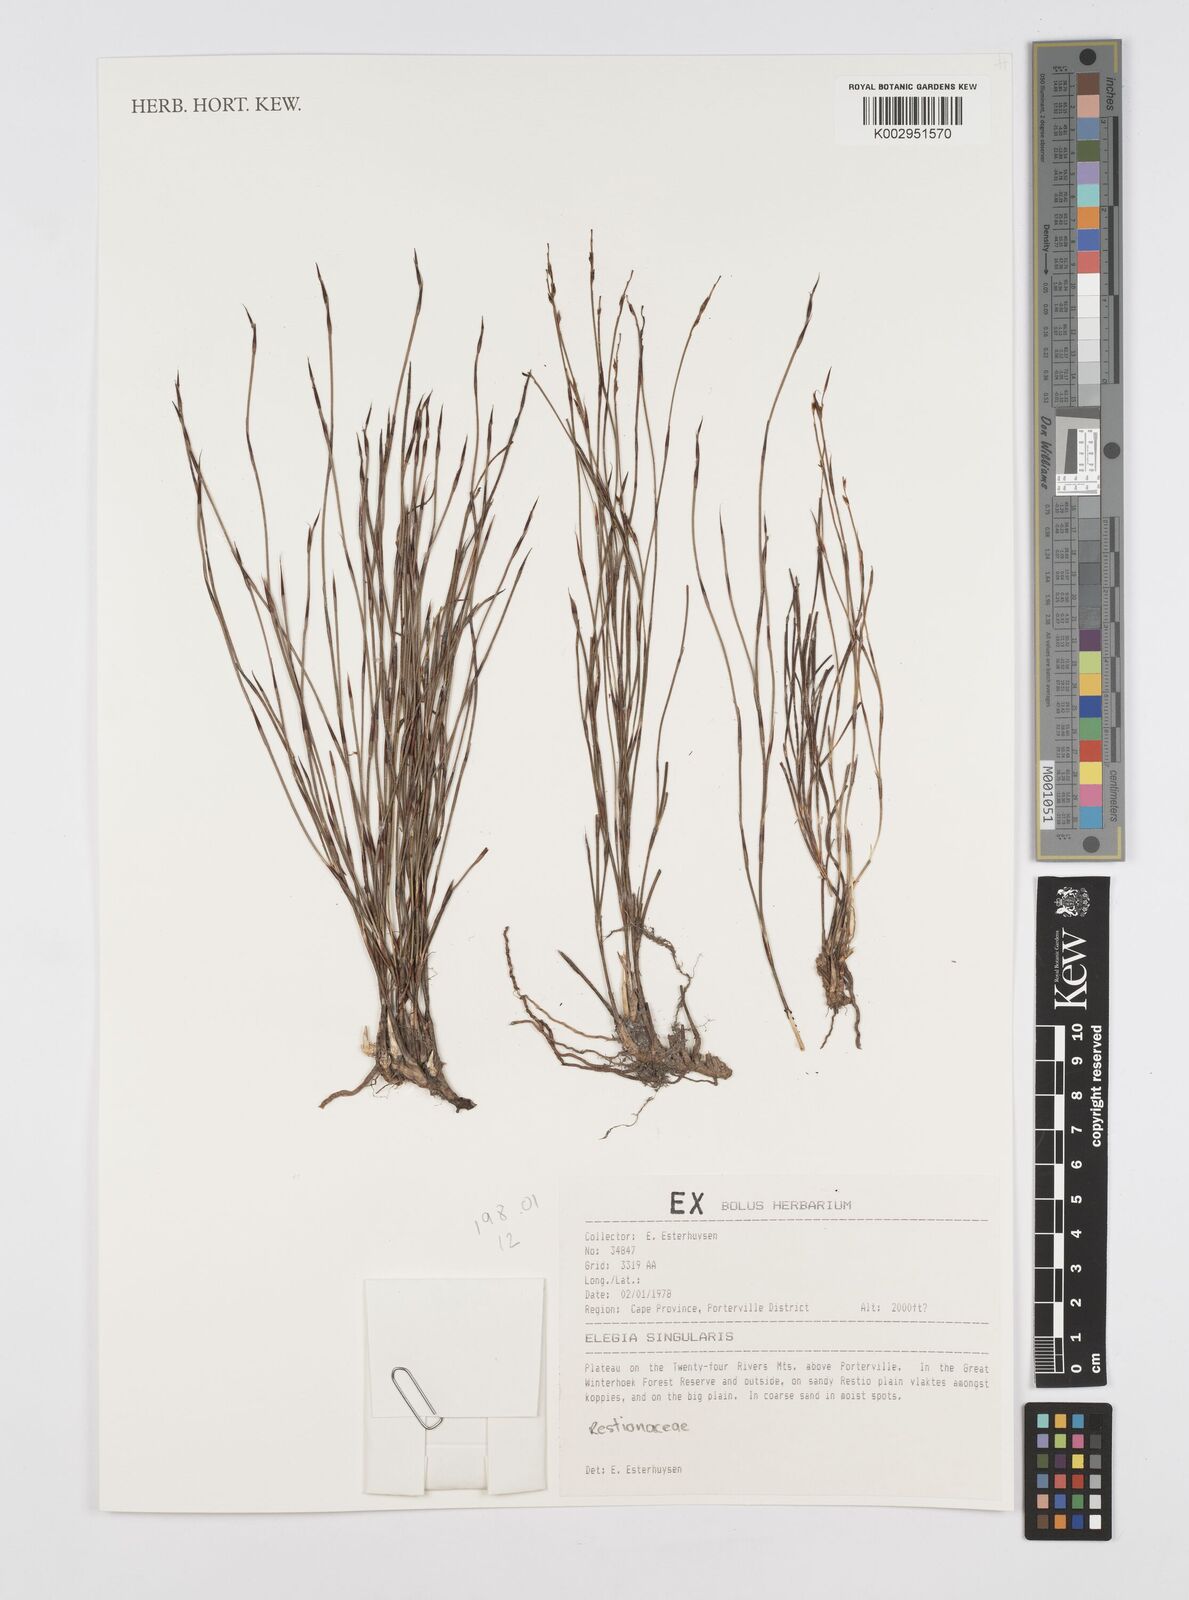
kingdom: Plantae
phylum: Tracheophyta
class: Liliopsida
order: Poales
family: Restionaceae
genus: Restio
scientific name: Restio singularis
